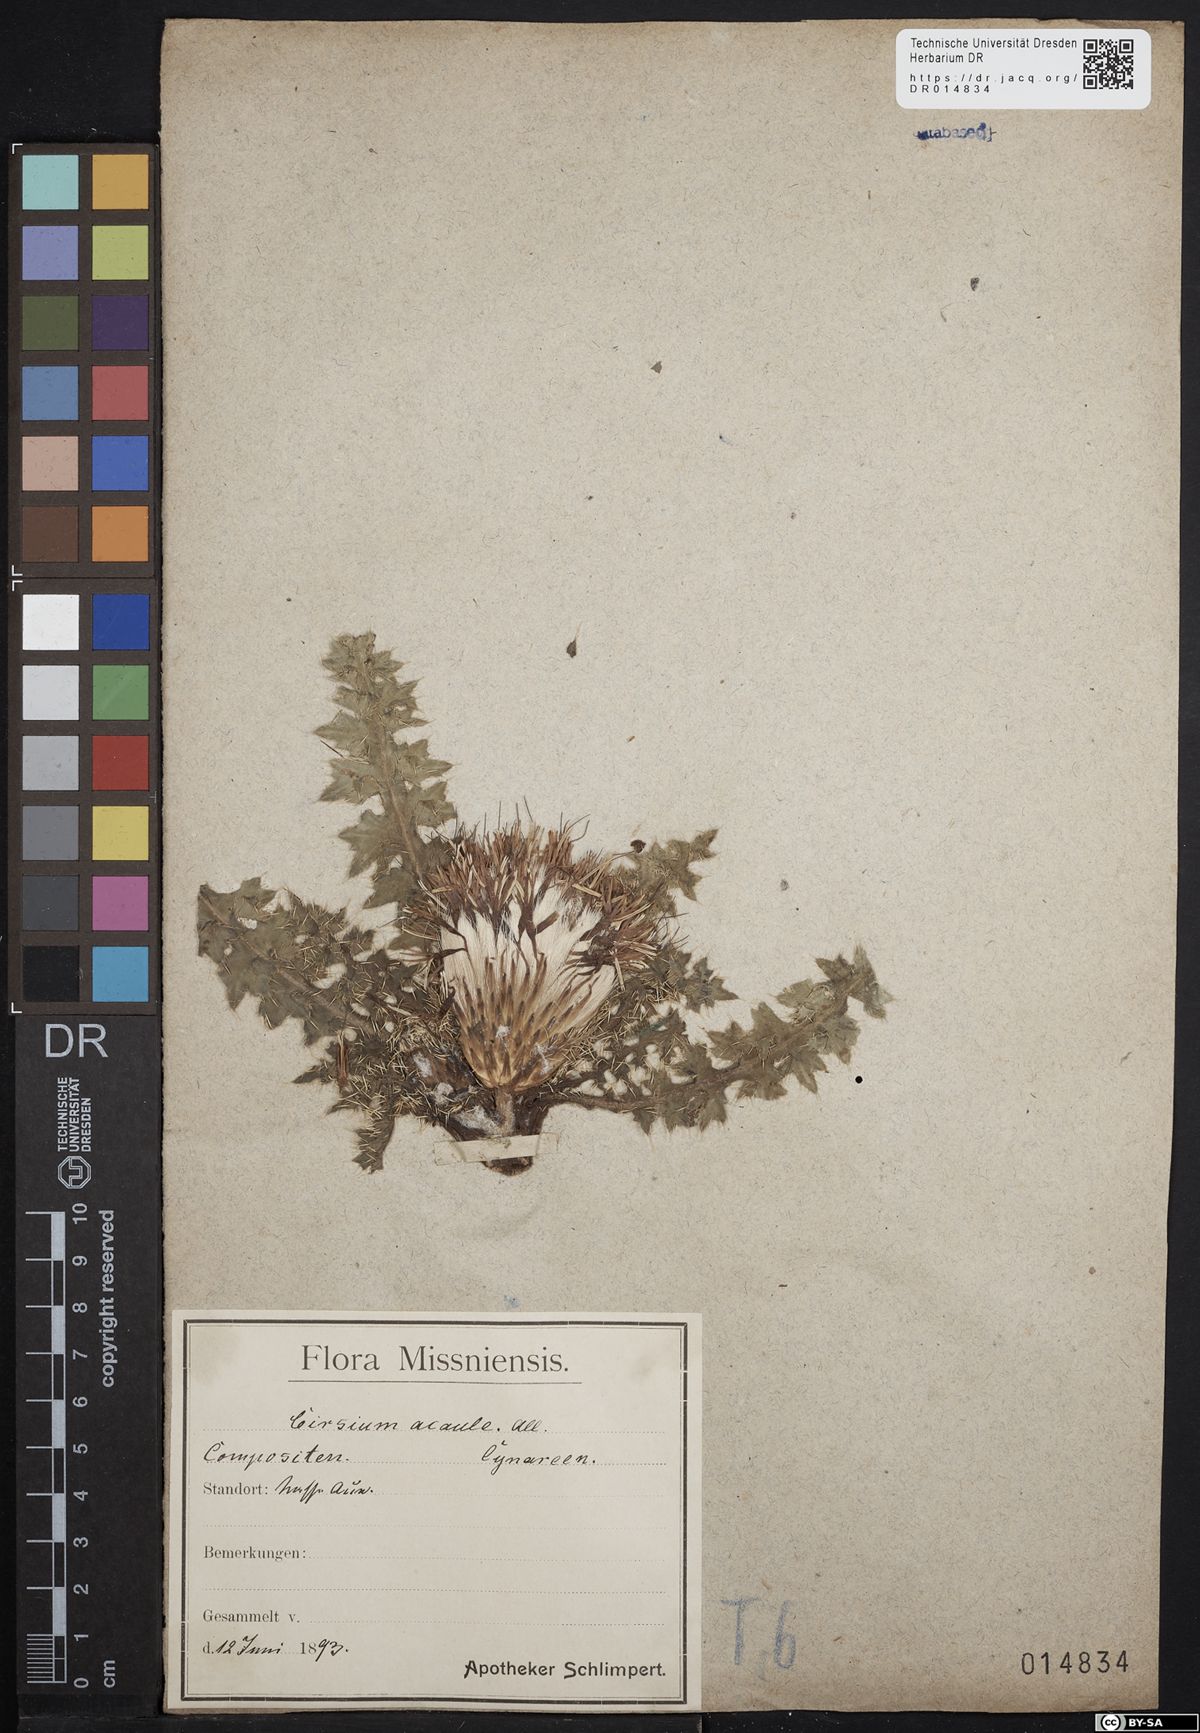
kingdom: Plantae
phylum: Tracheophyta
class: Magnoliopsida
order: Asterales
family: Asteraceae
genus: Cirsium
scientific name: Cirsium acaule
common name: Dwarf thistle
